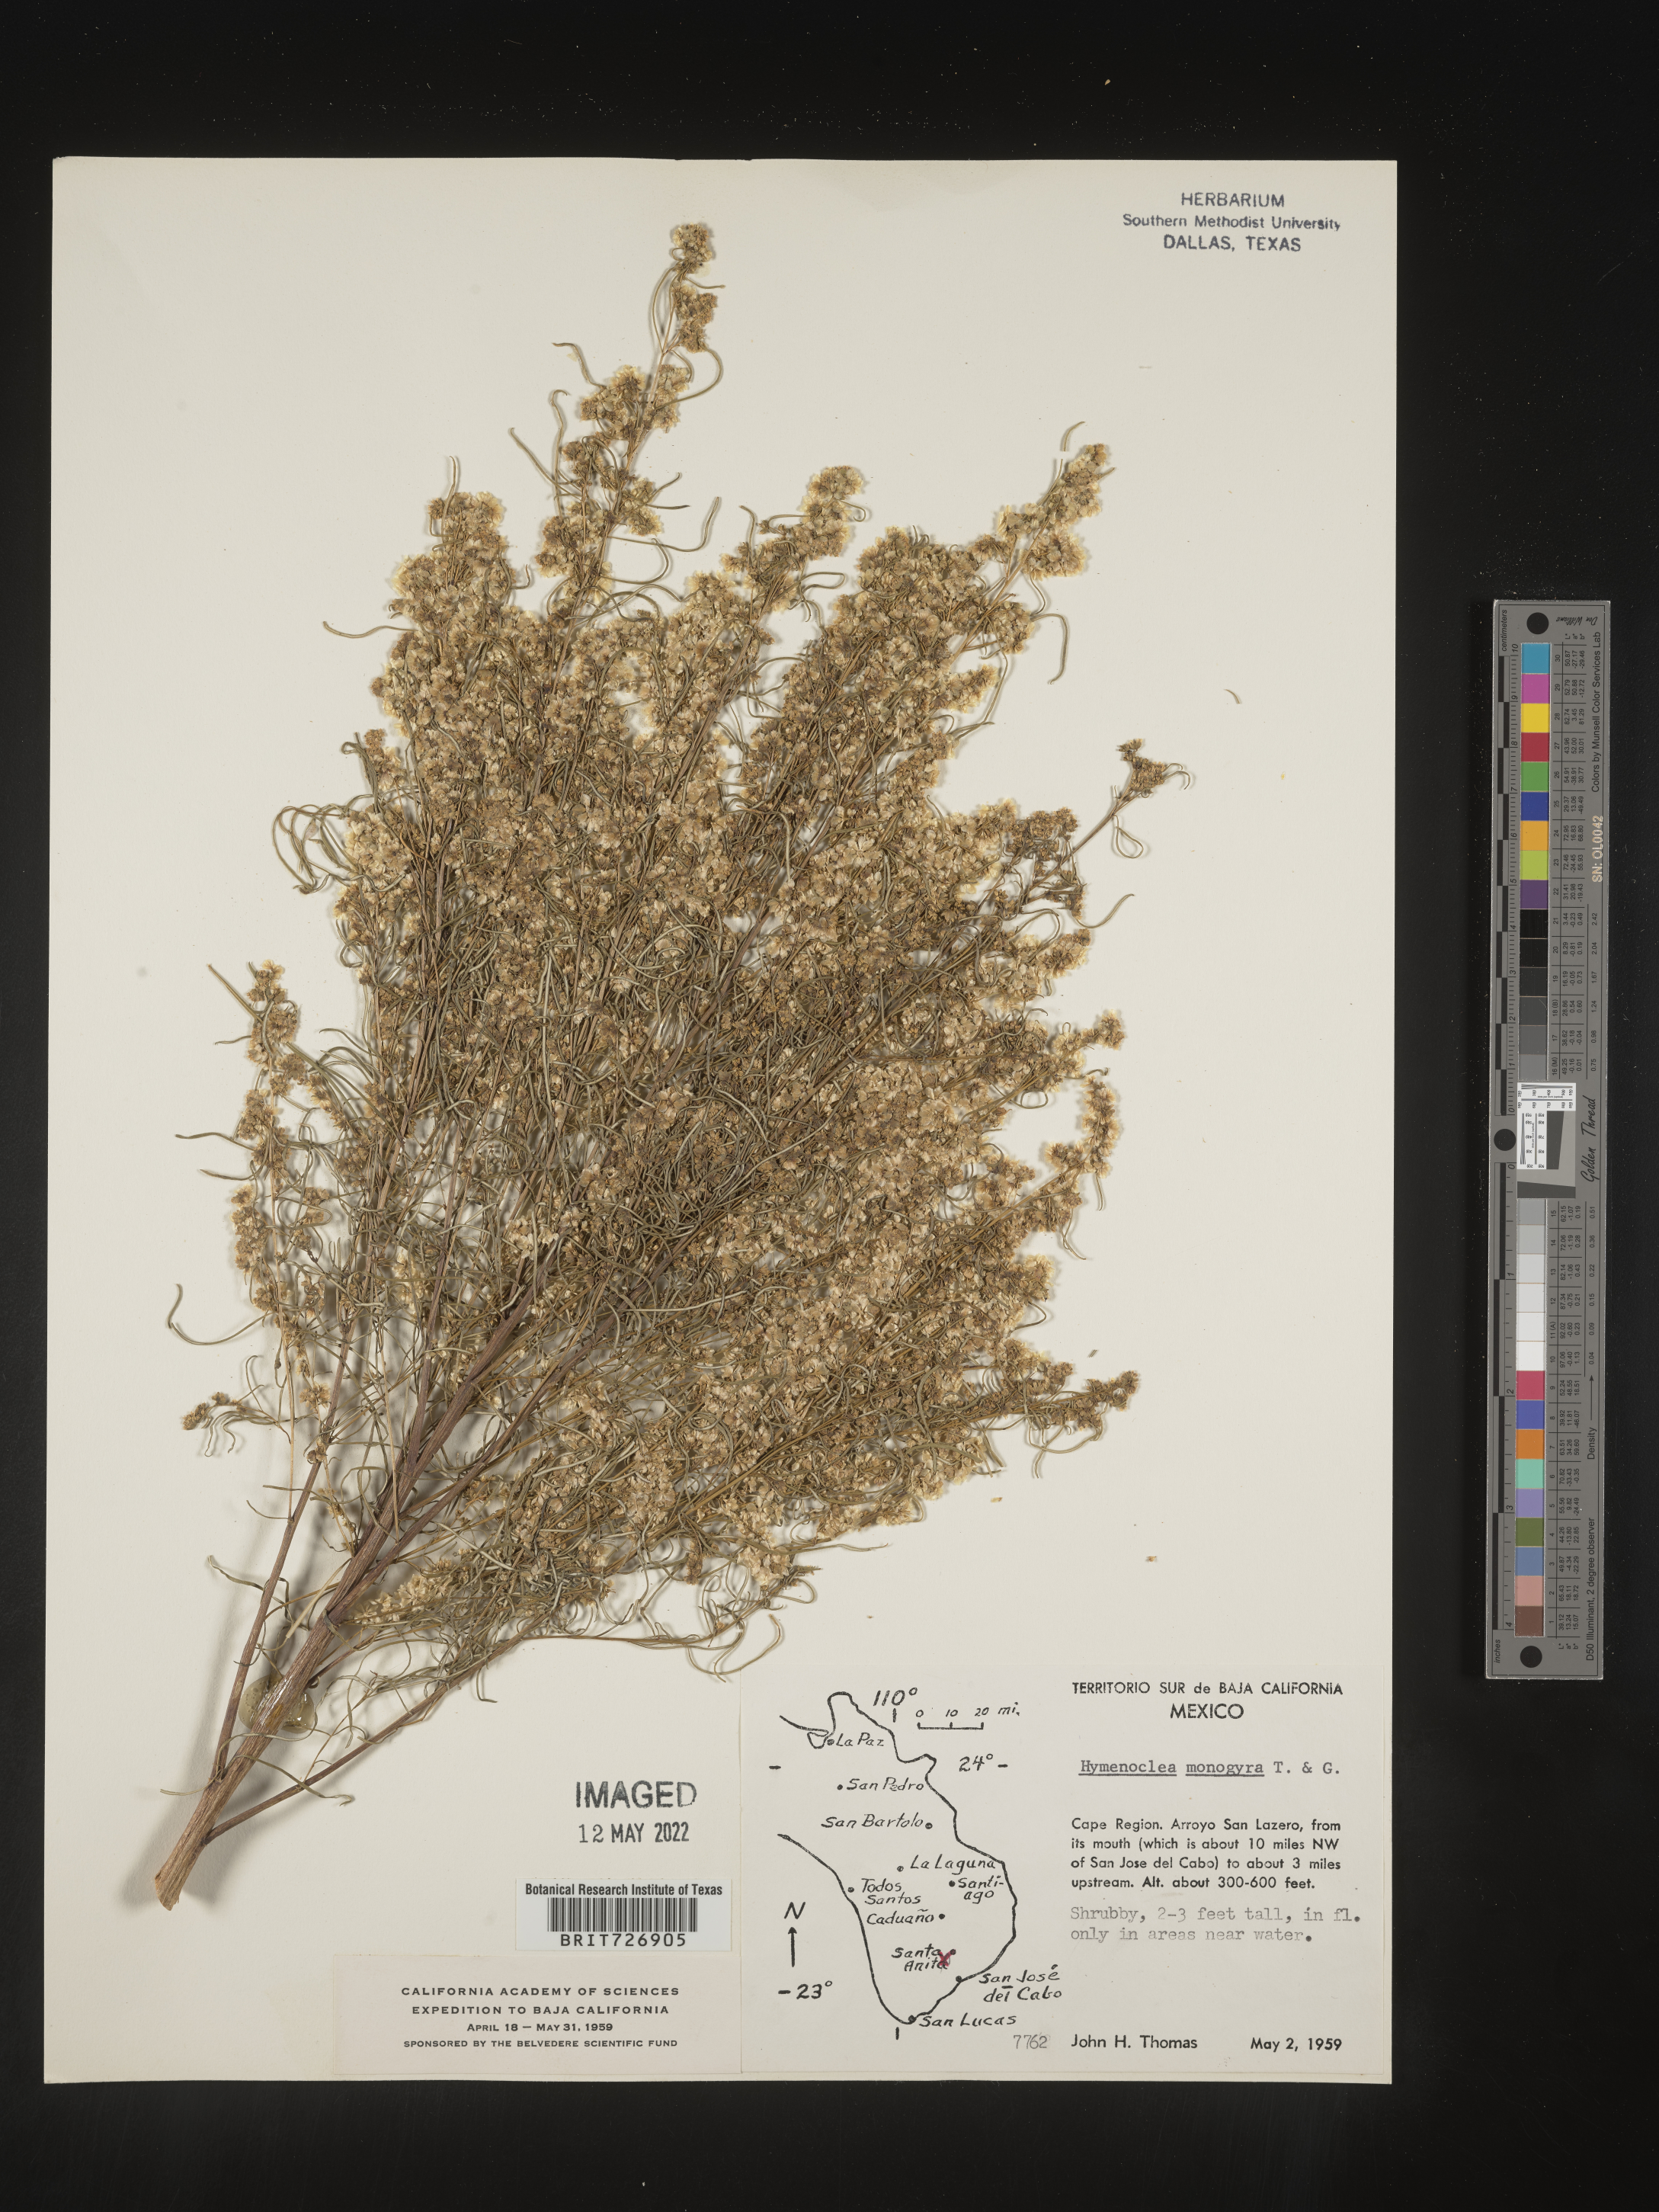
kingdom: Plantae
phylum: Tracheophyta
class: Magnoliopsida
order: Asterales
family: Asteraceae
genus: Ambrosia
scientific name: Ambrosia monogyra
